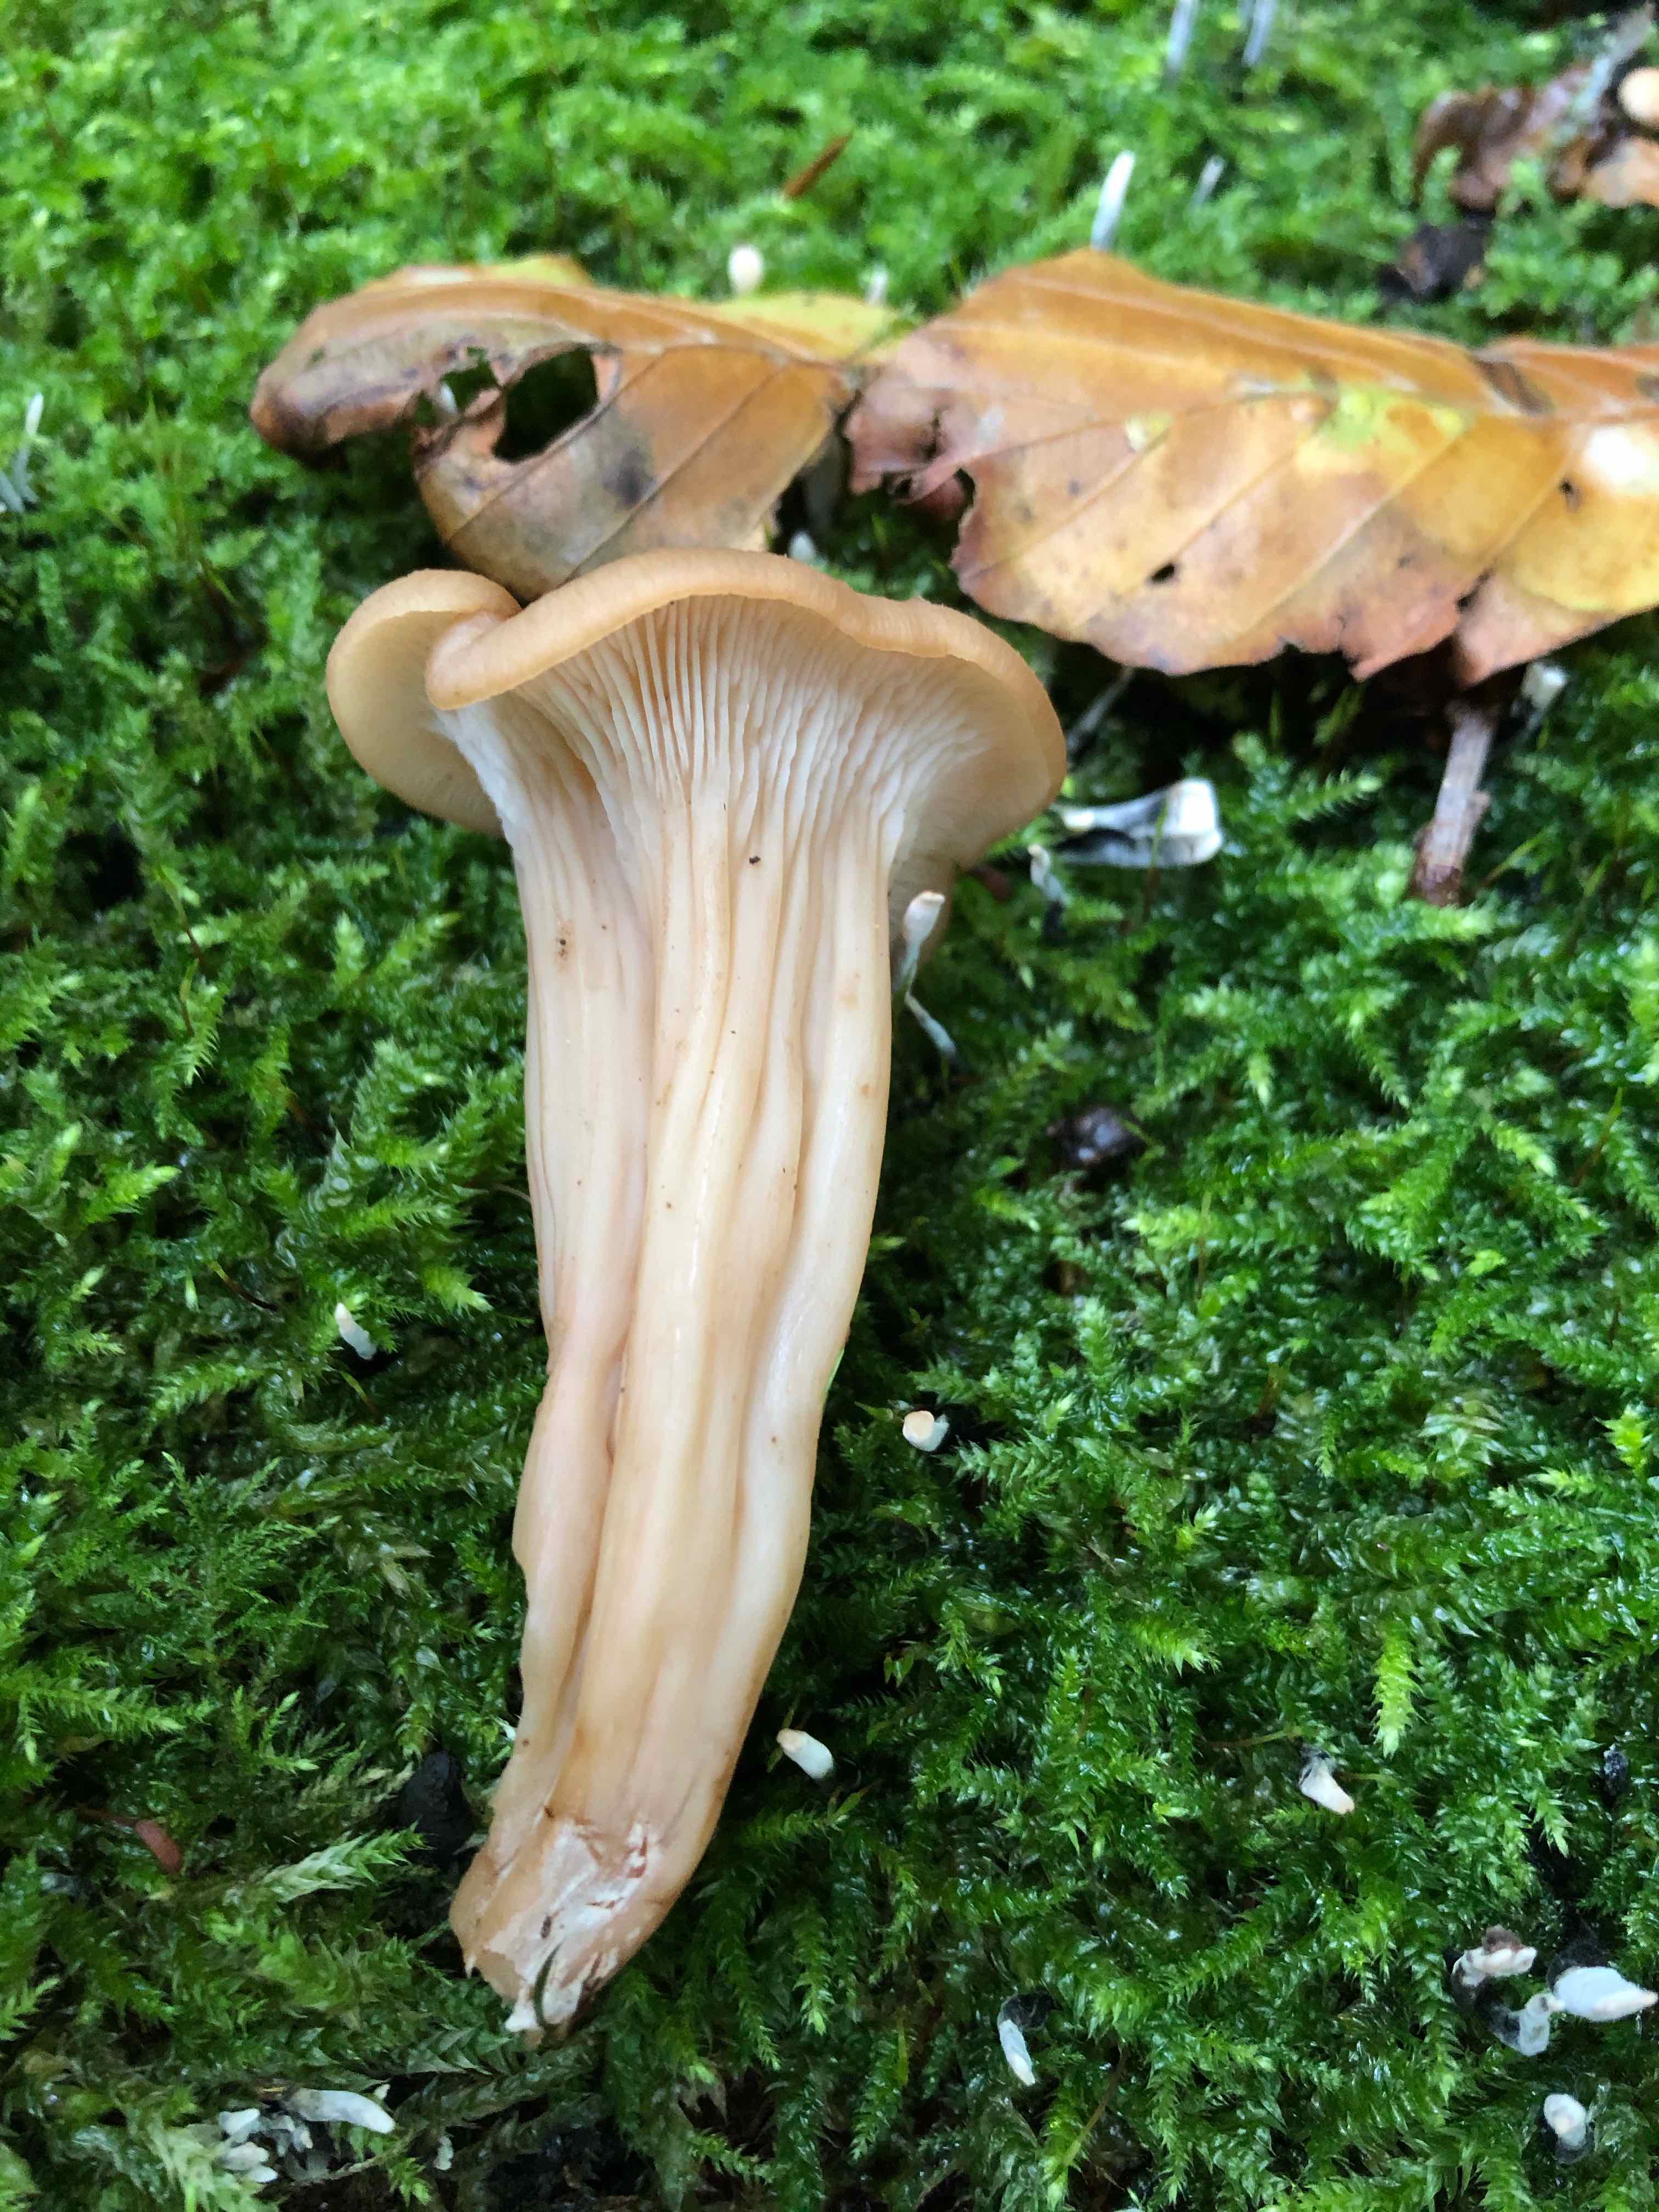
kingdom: Fungi
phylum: Basidiomycota
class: Agaricomycetes
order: Russulales
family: Auriscalpiaceae
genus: Lentinellus
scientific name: Lentinellus cochleatus
